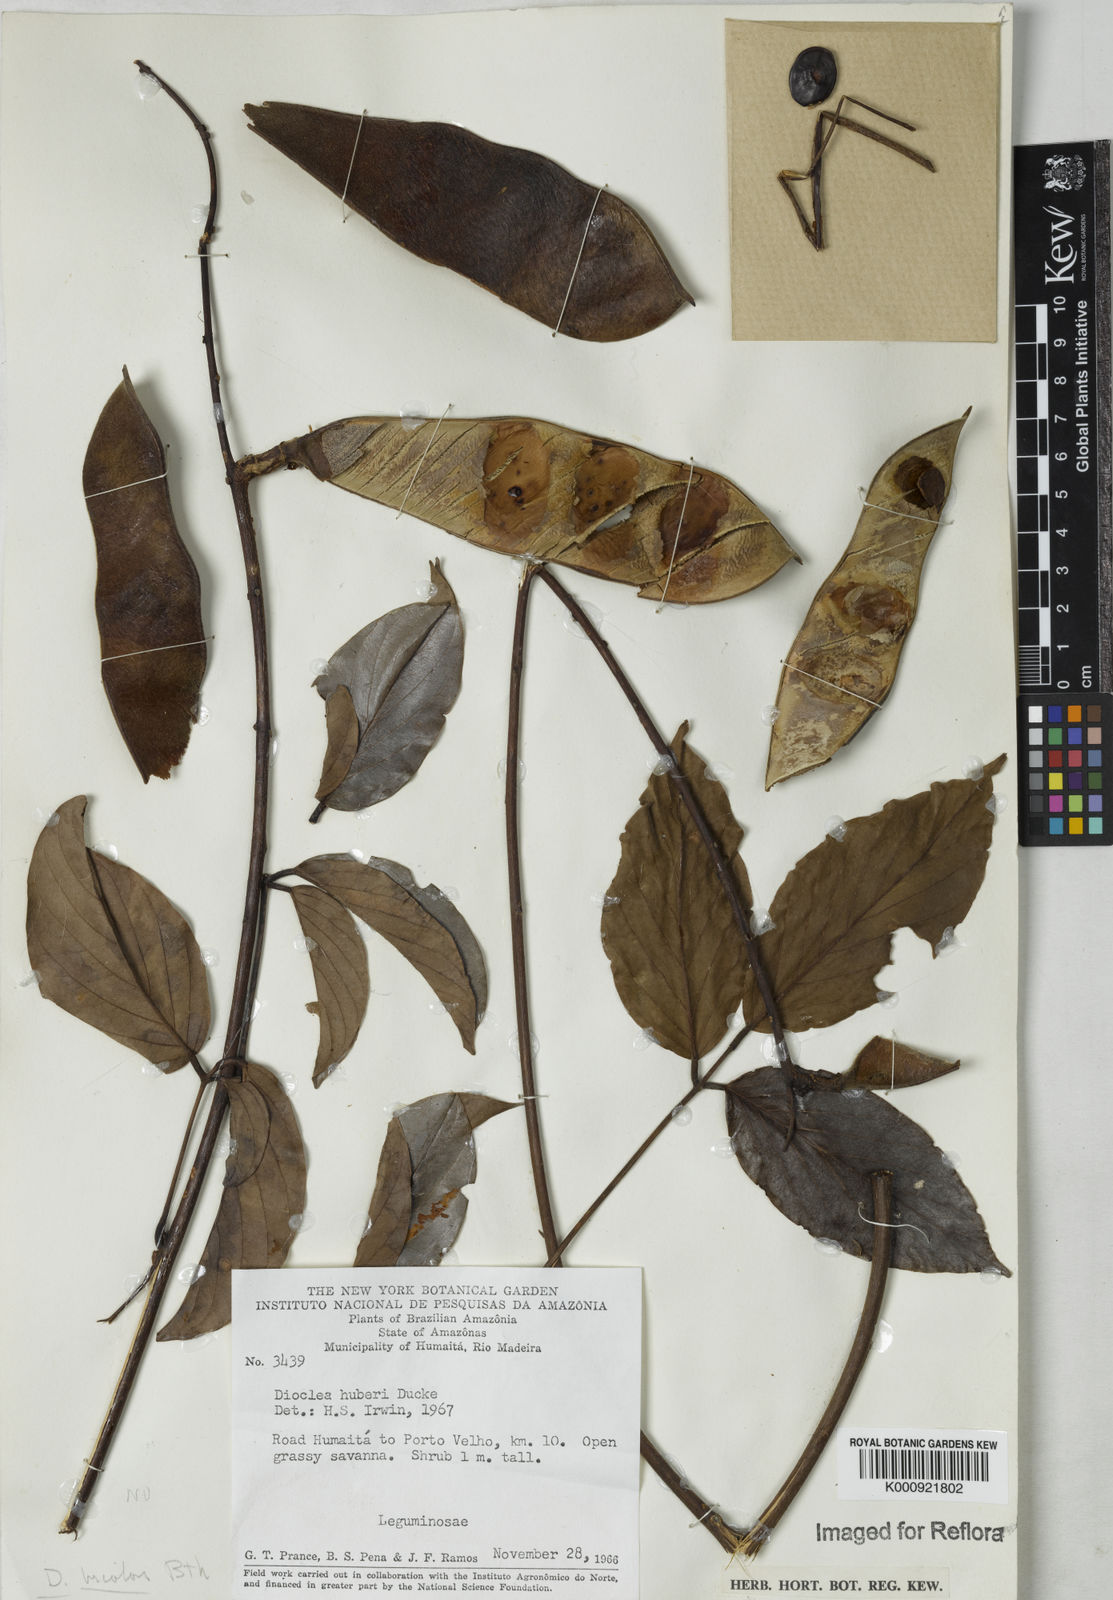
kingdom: Plantae
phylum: Tracheophyta
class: Magnoliopsida
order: Fabales
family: Fabaceae
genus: Macropsychanthus
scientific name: Macropsychanthus bicolor
